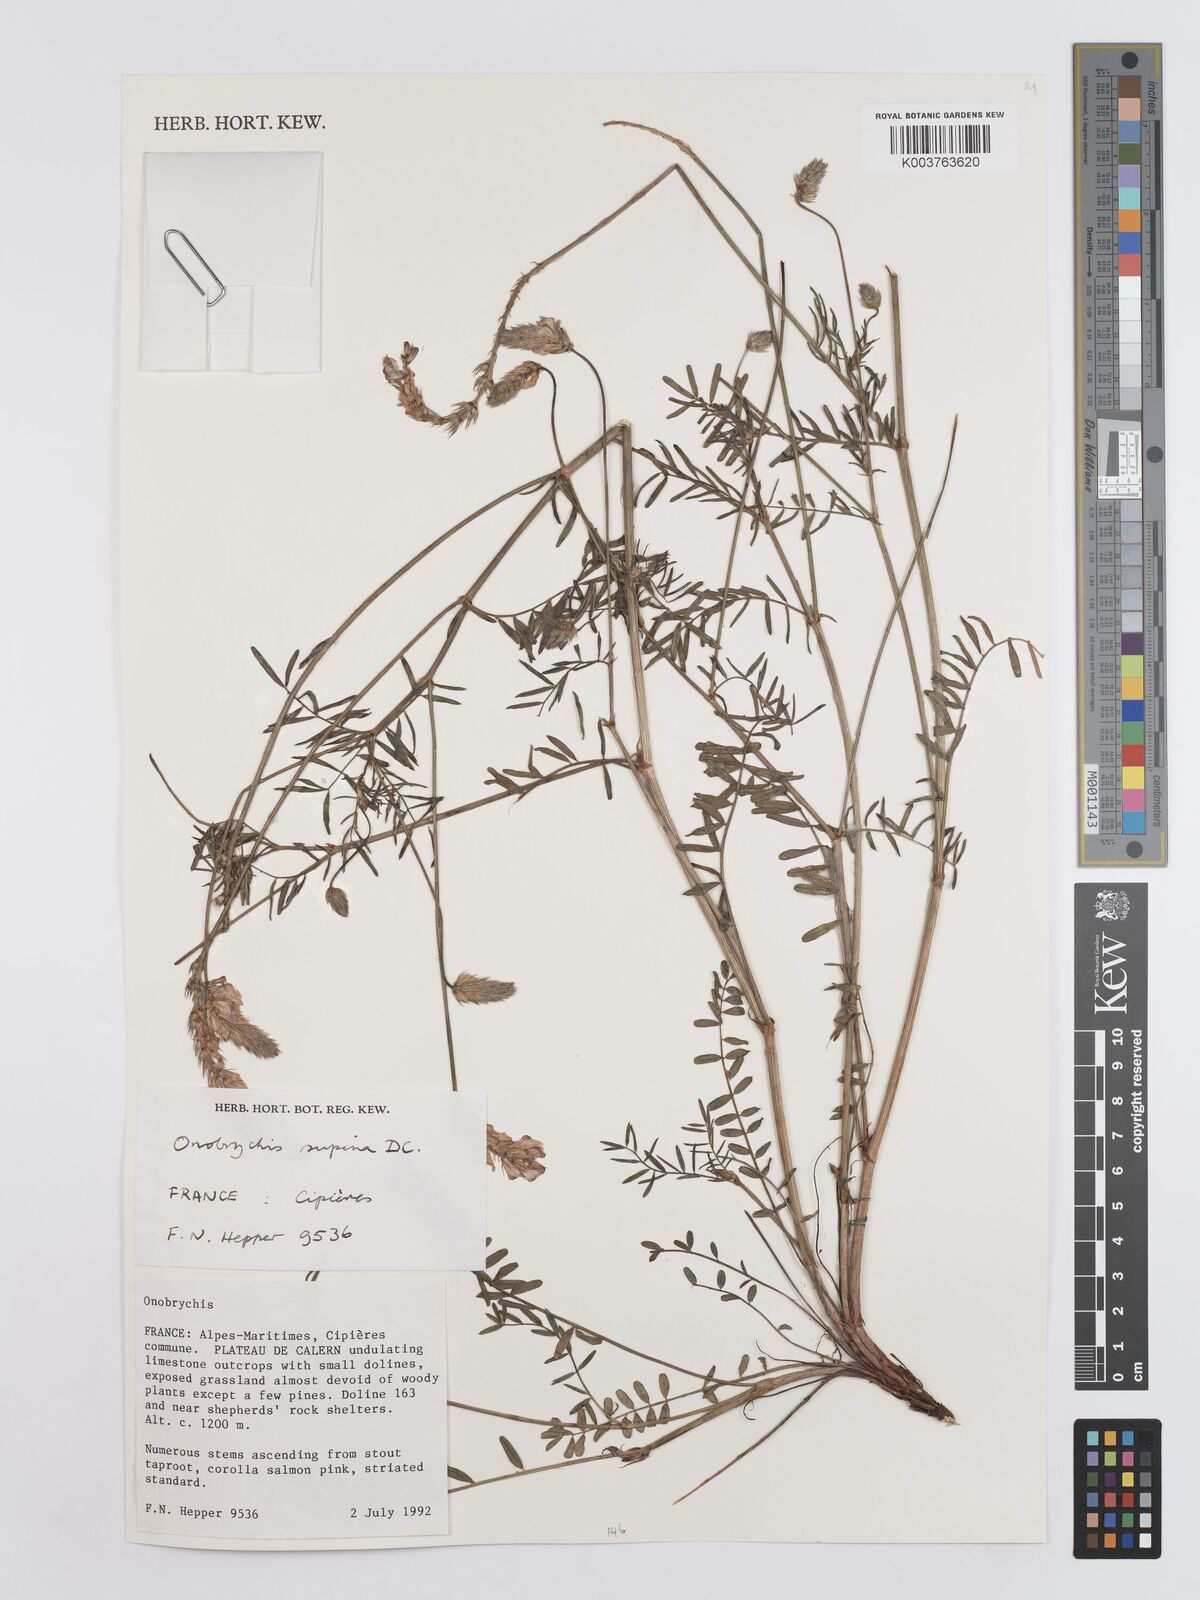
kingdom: Plantae
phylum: Tracheophyta
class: Magnoliopsida
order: Fabales
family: Fabaceae
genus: Onobrychis
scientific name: Onobrychis supina
